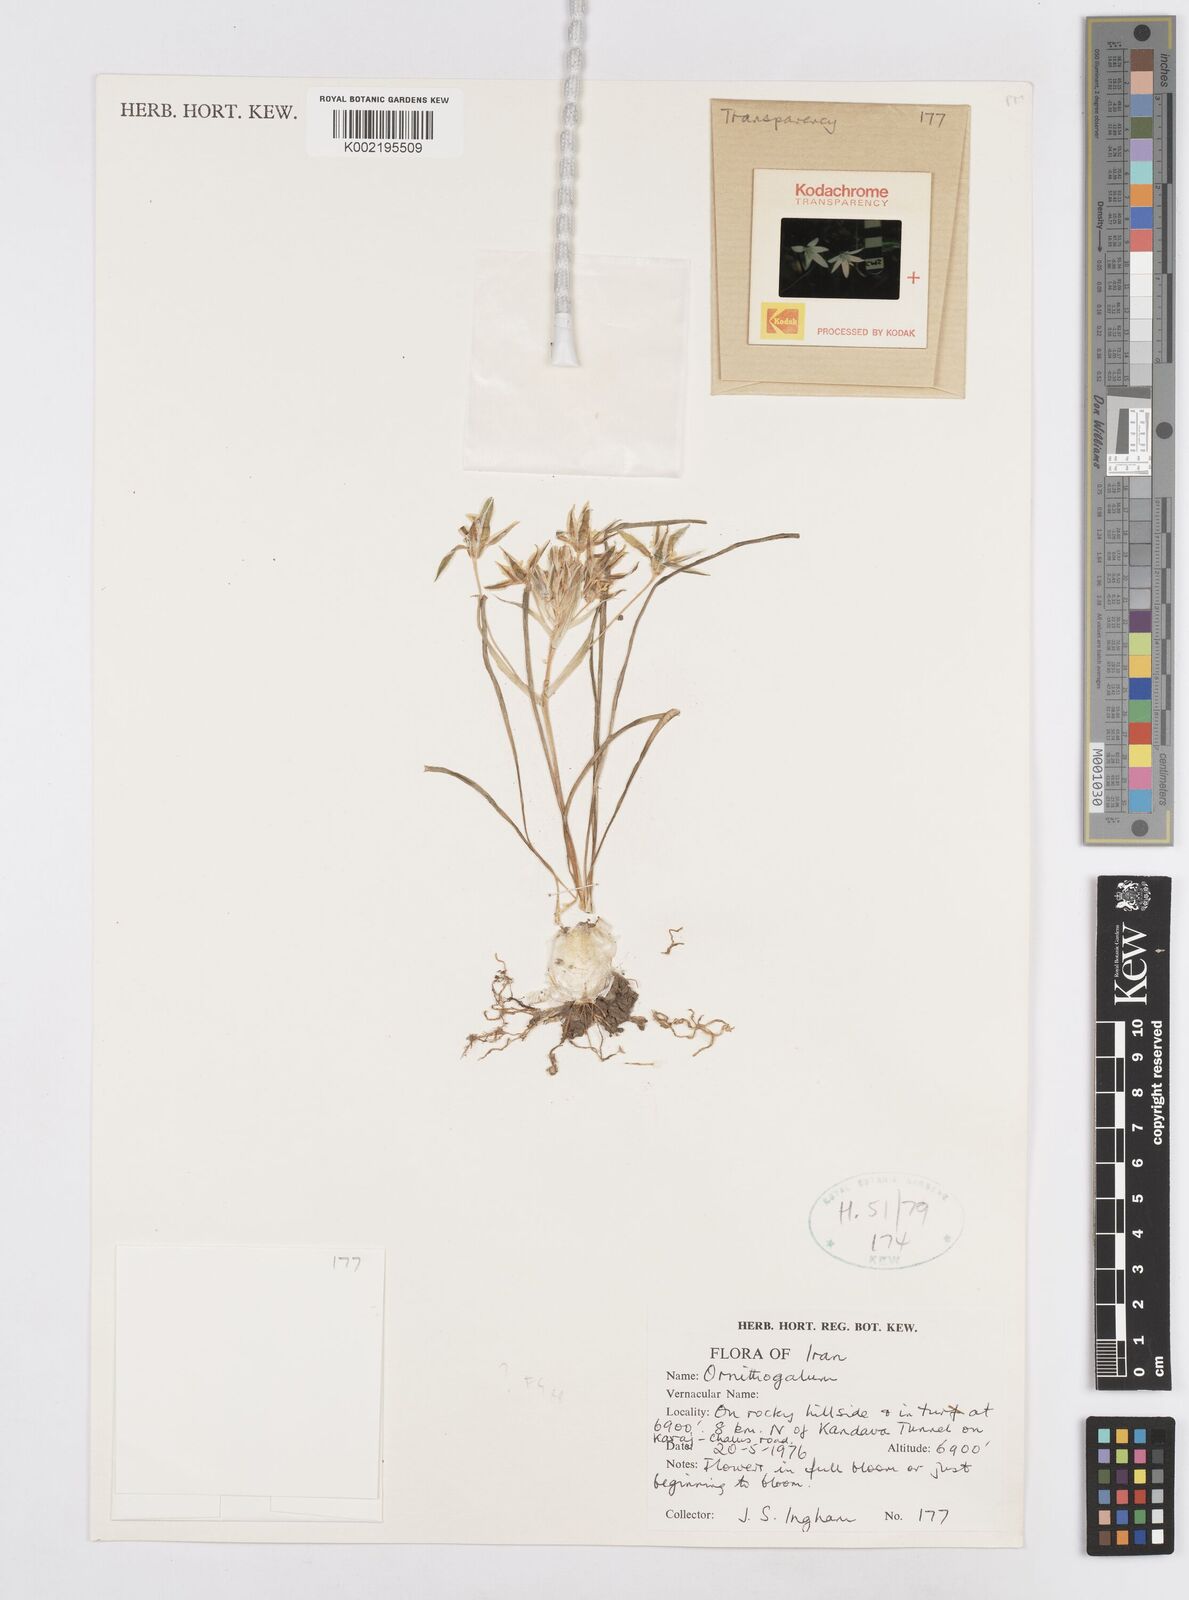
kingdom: Plantae
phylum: Tracheophyta
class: Liliopsida
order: Asparagales
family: Asparagaceae
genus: Ornithogalum
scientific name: Ornithogalum
